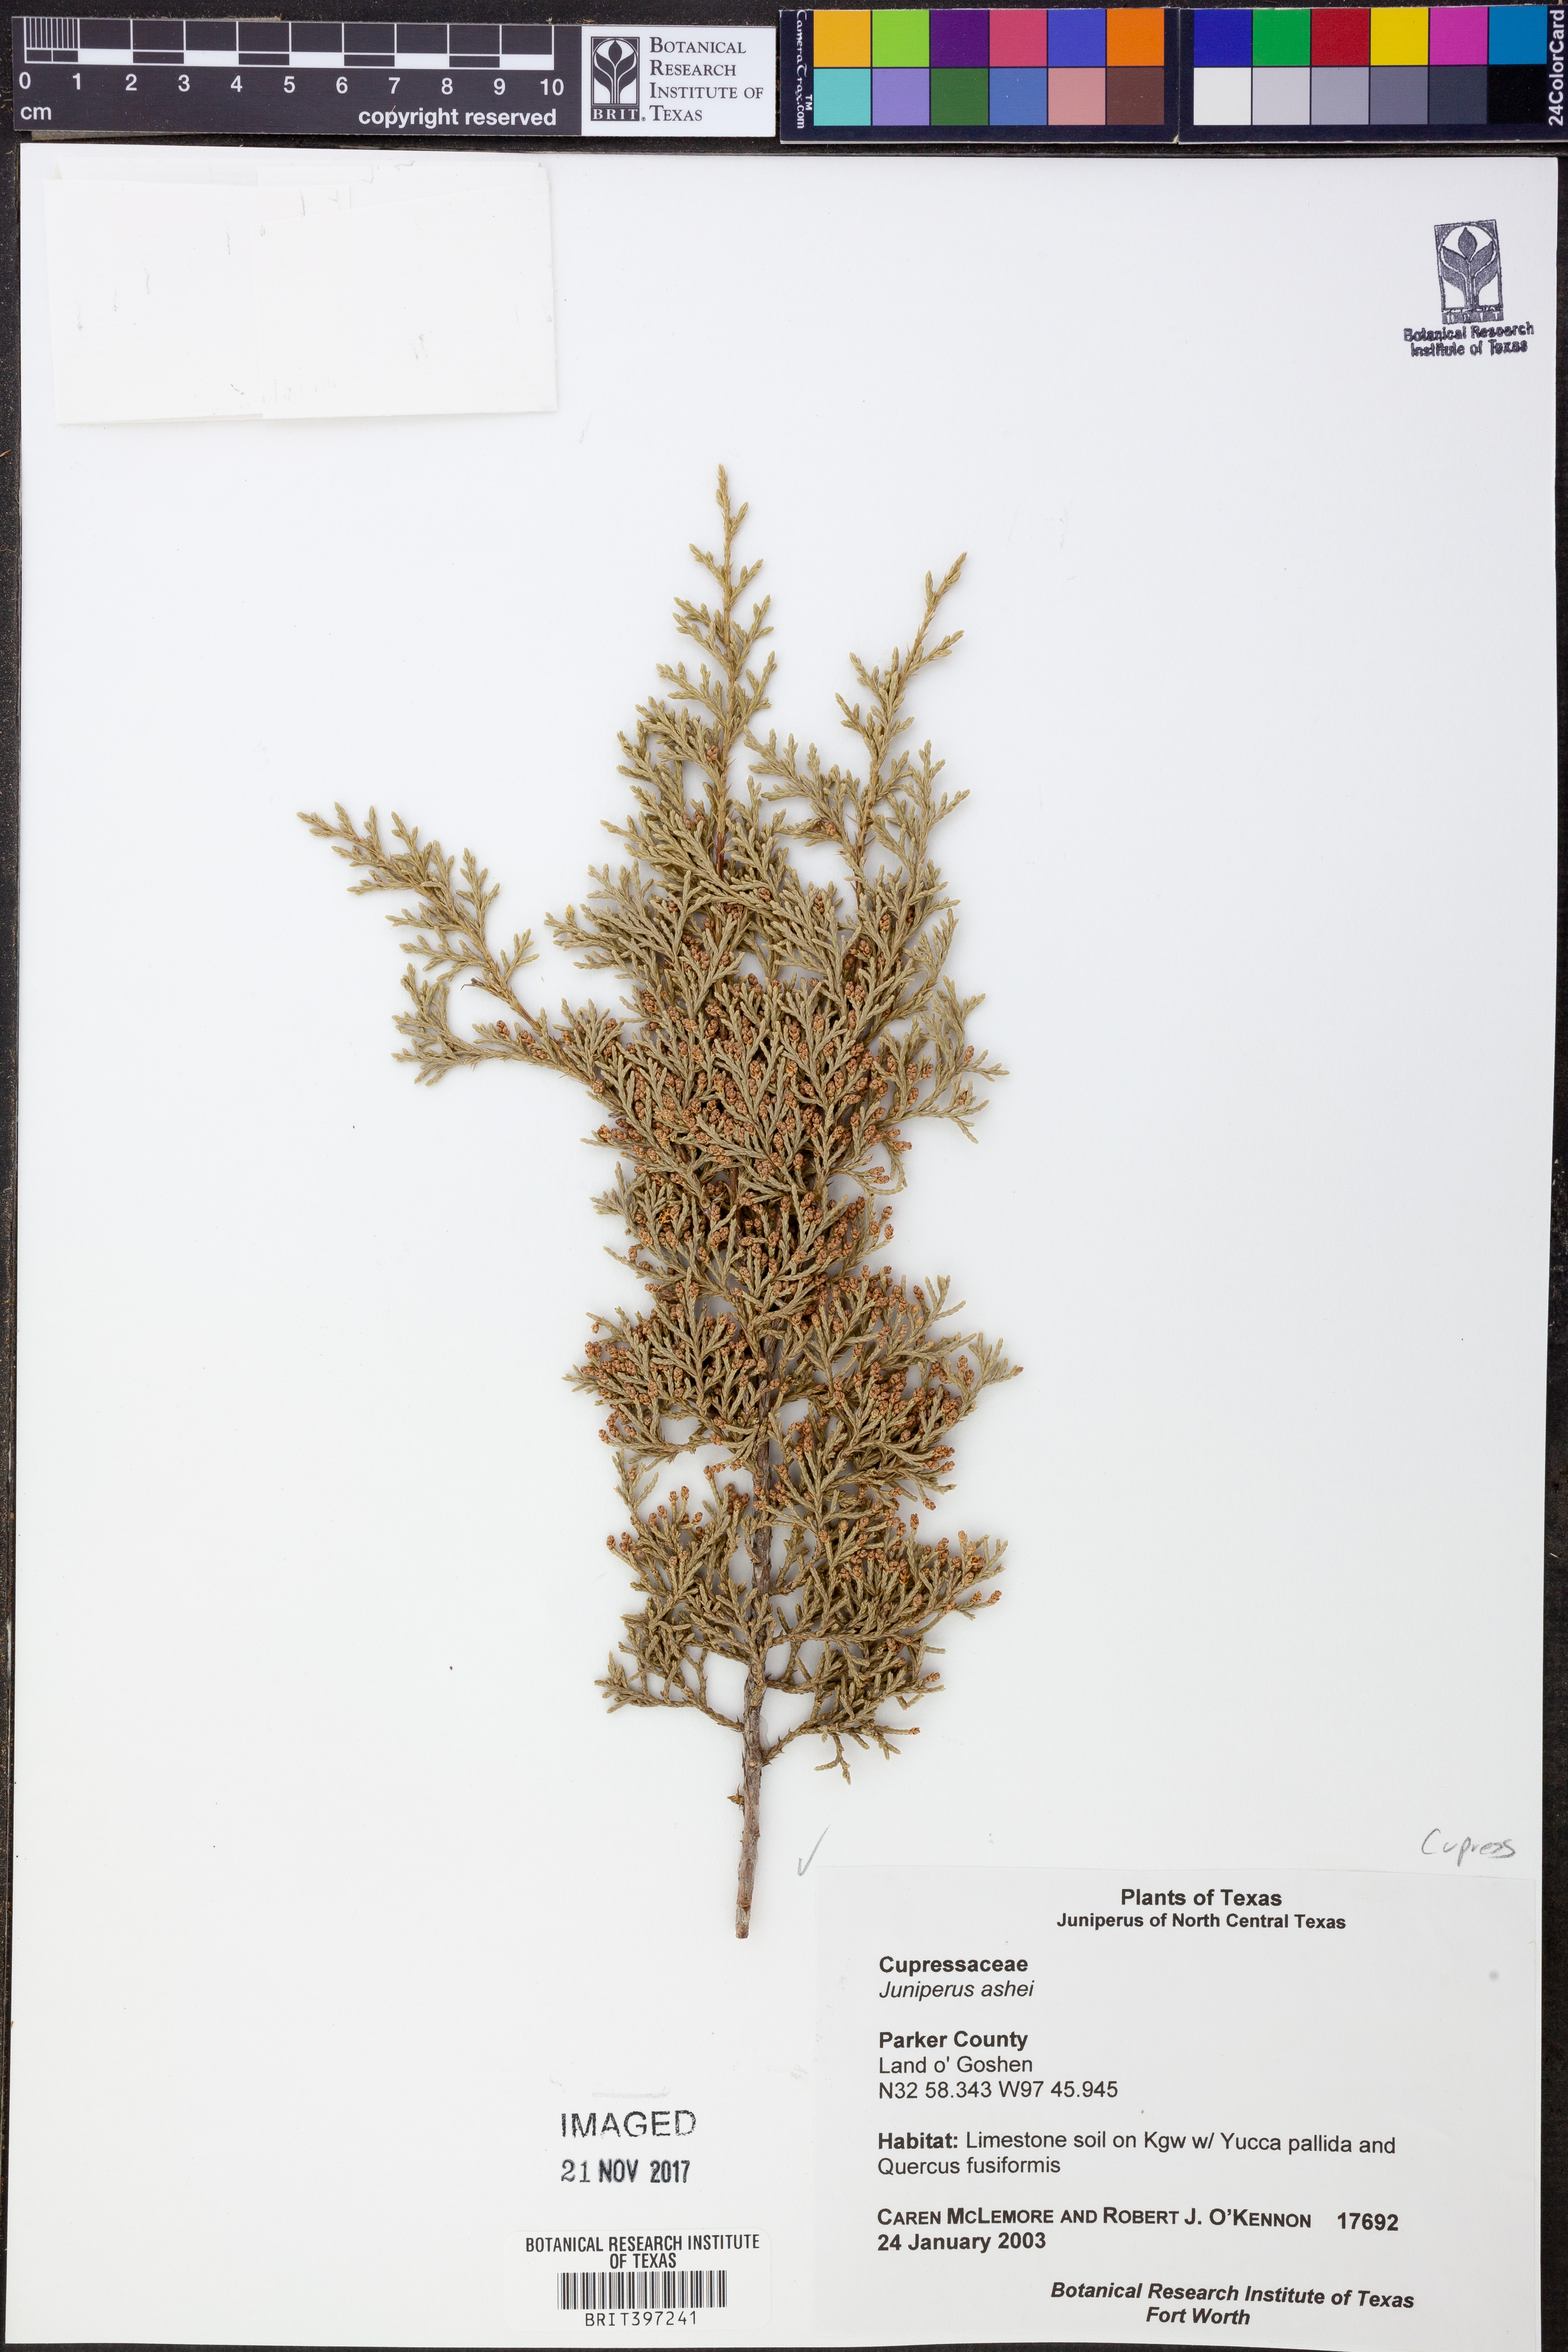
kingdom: Plantae
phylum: Tracheophyta
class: Pinopsida
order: Pinales
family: Cupressaceae
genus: Juniperus
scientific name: Juniperus ashei
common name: Mexican juniper
